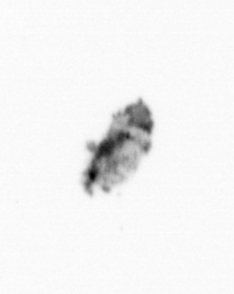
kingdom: Animalia
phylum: Arthropoda
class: Copepoda
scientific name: Copepoda
